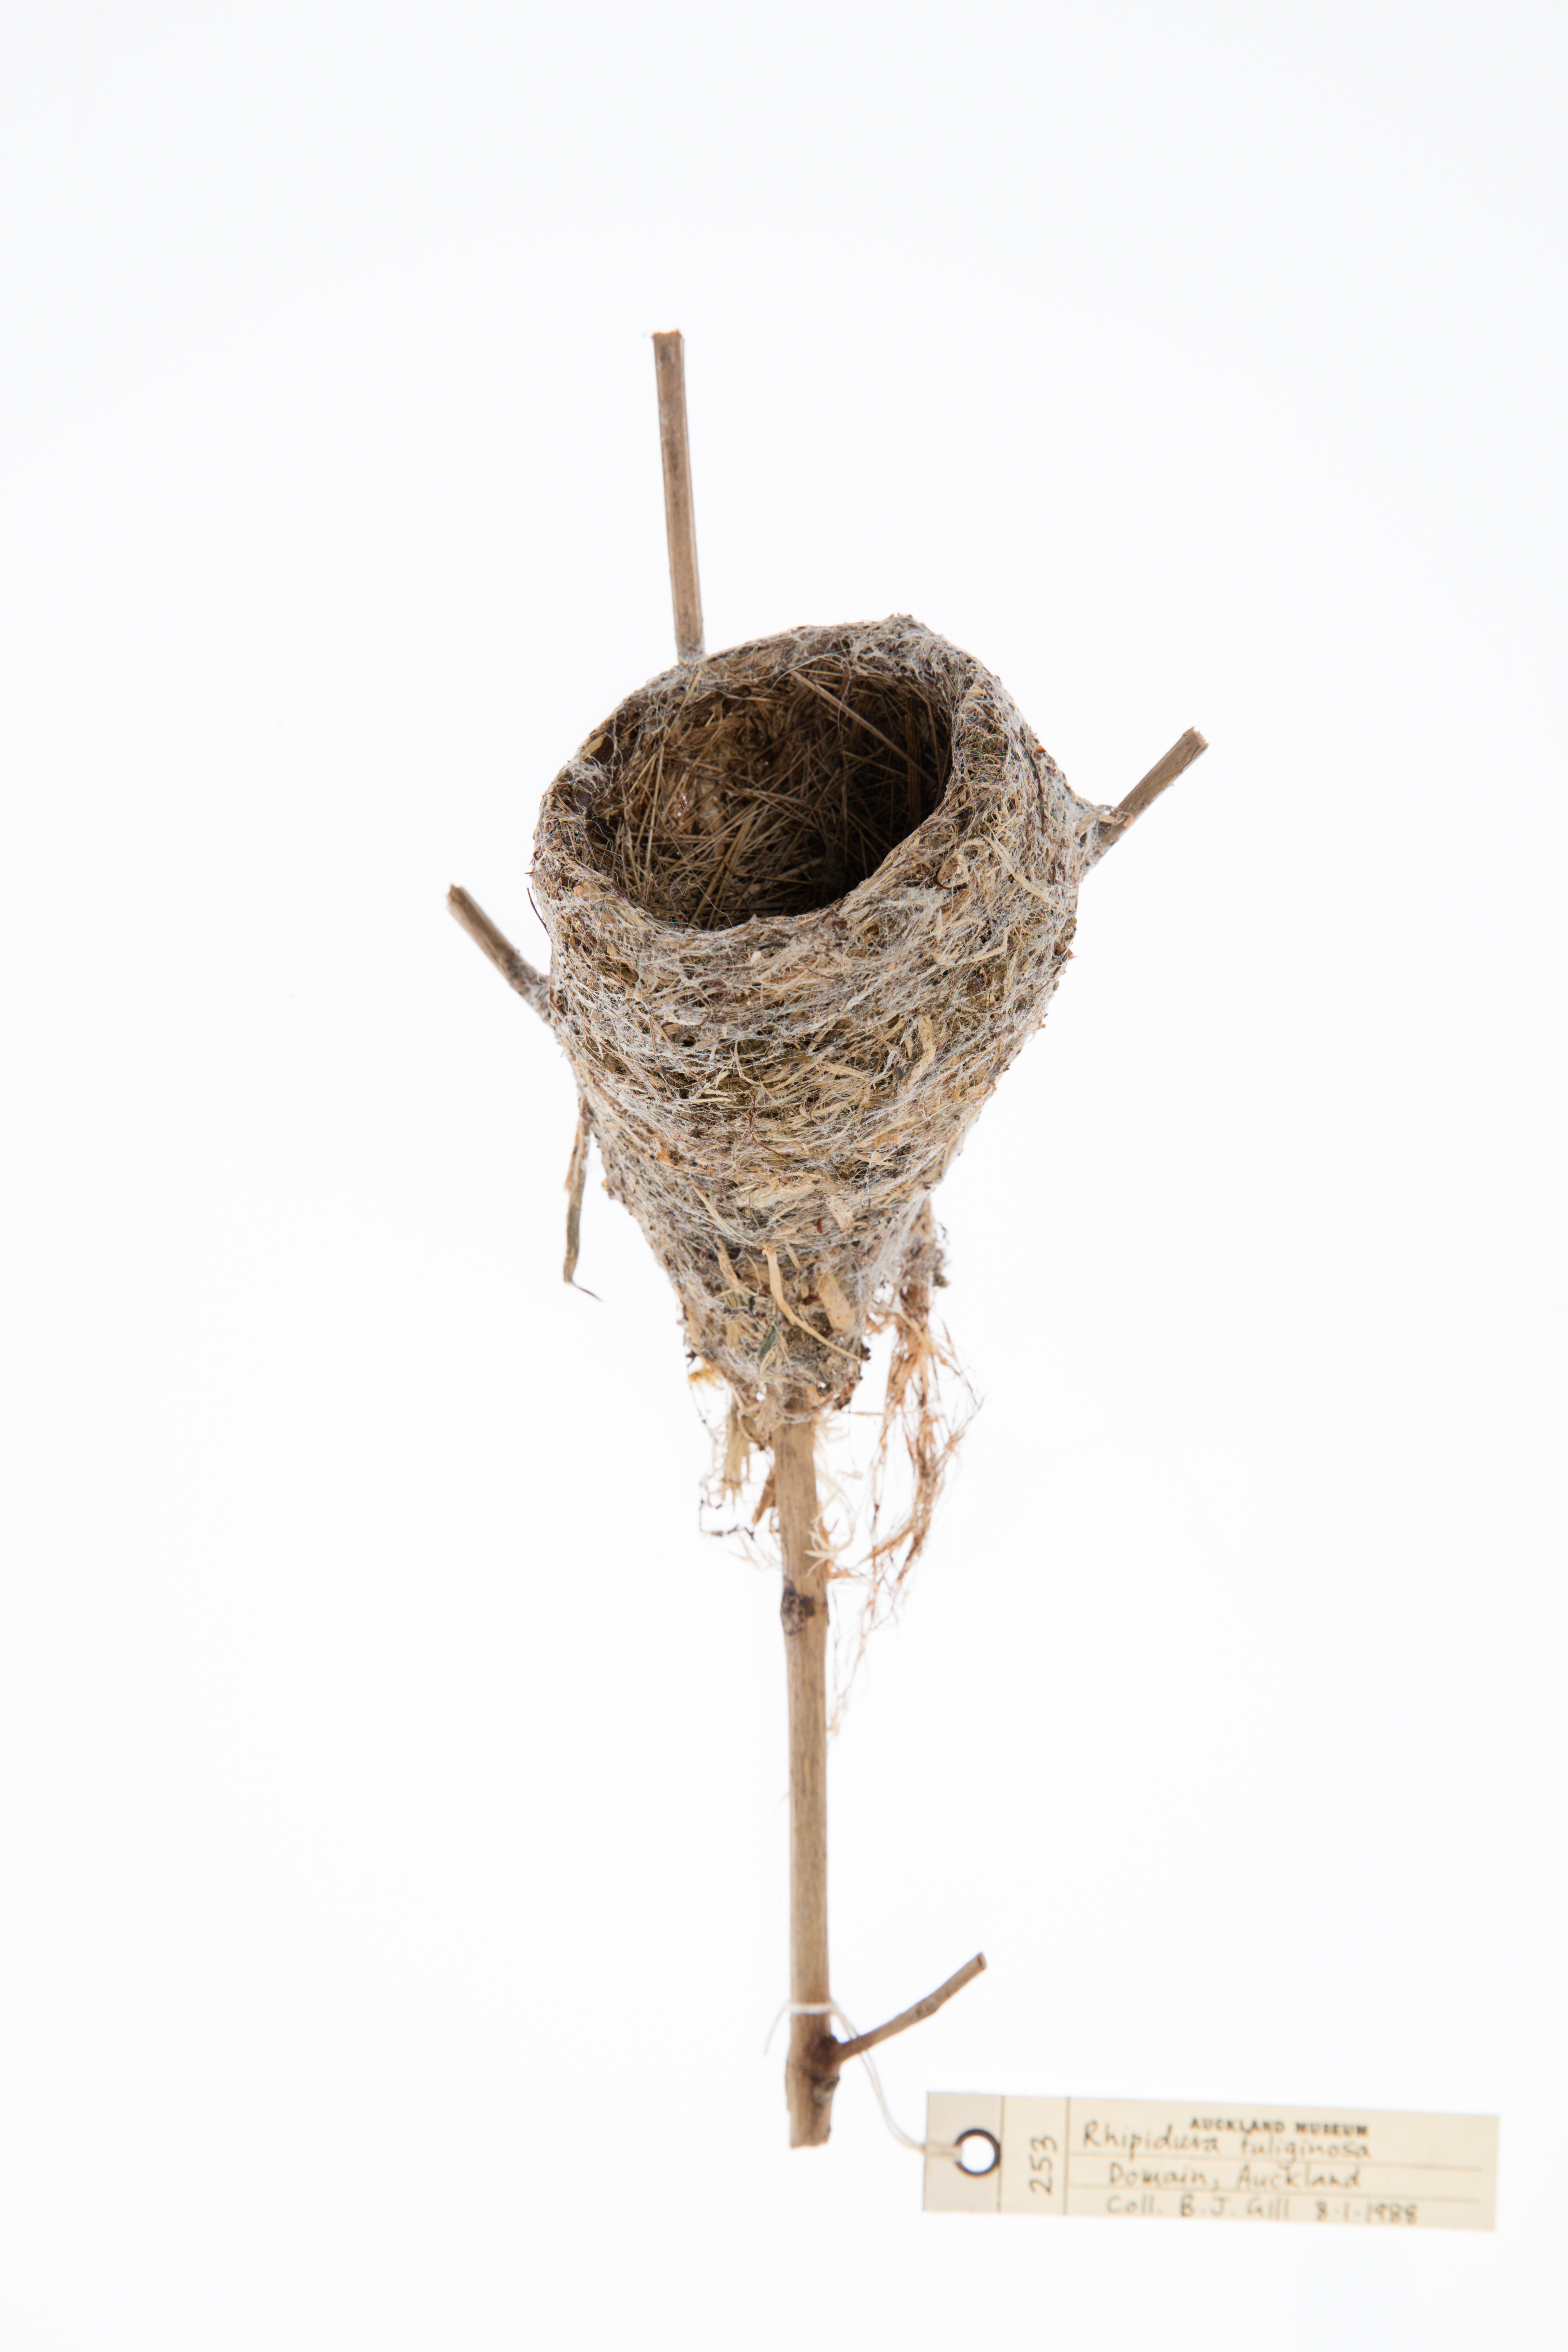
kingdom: Animalia
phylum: Chordata
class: Aves
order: Passeriformes
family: Rhipiduridae
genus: Rhipidura
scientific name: Rhipidura fuliginosa
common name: New zealand fantail
